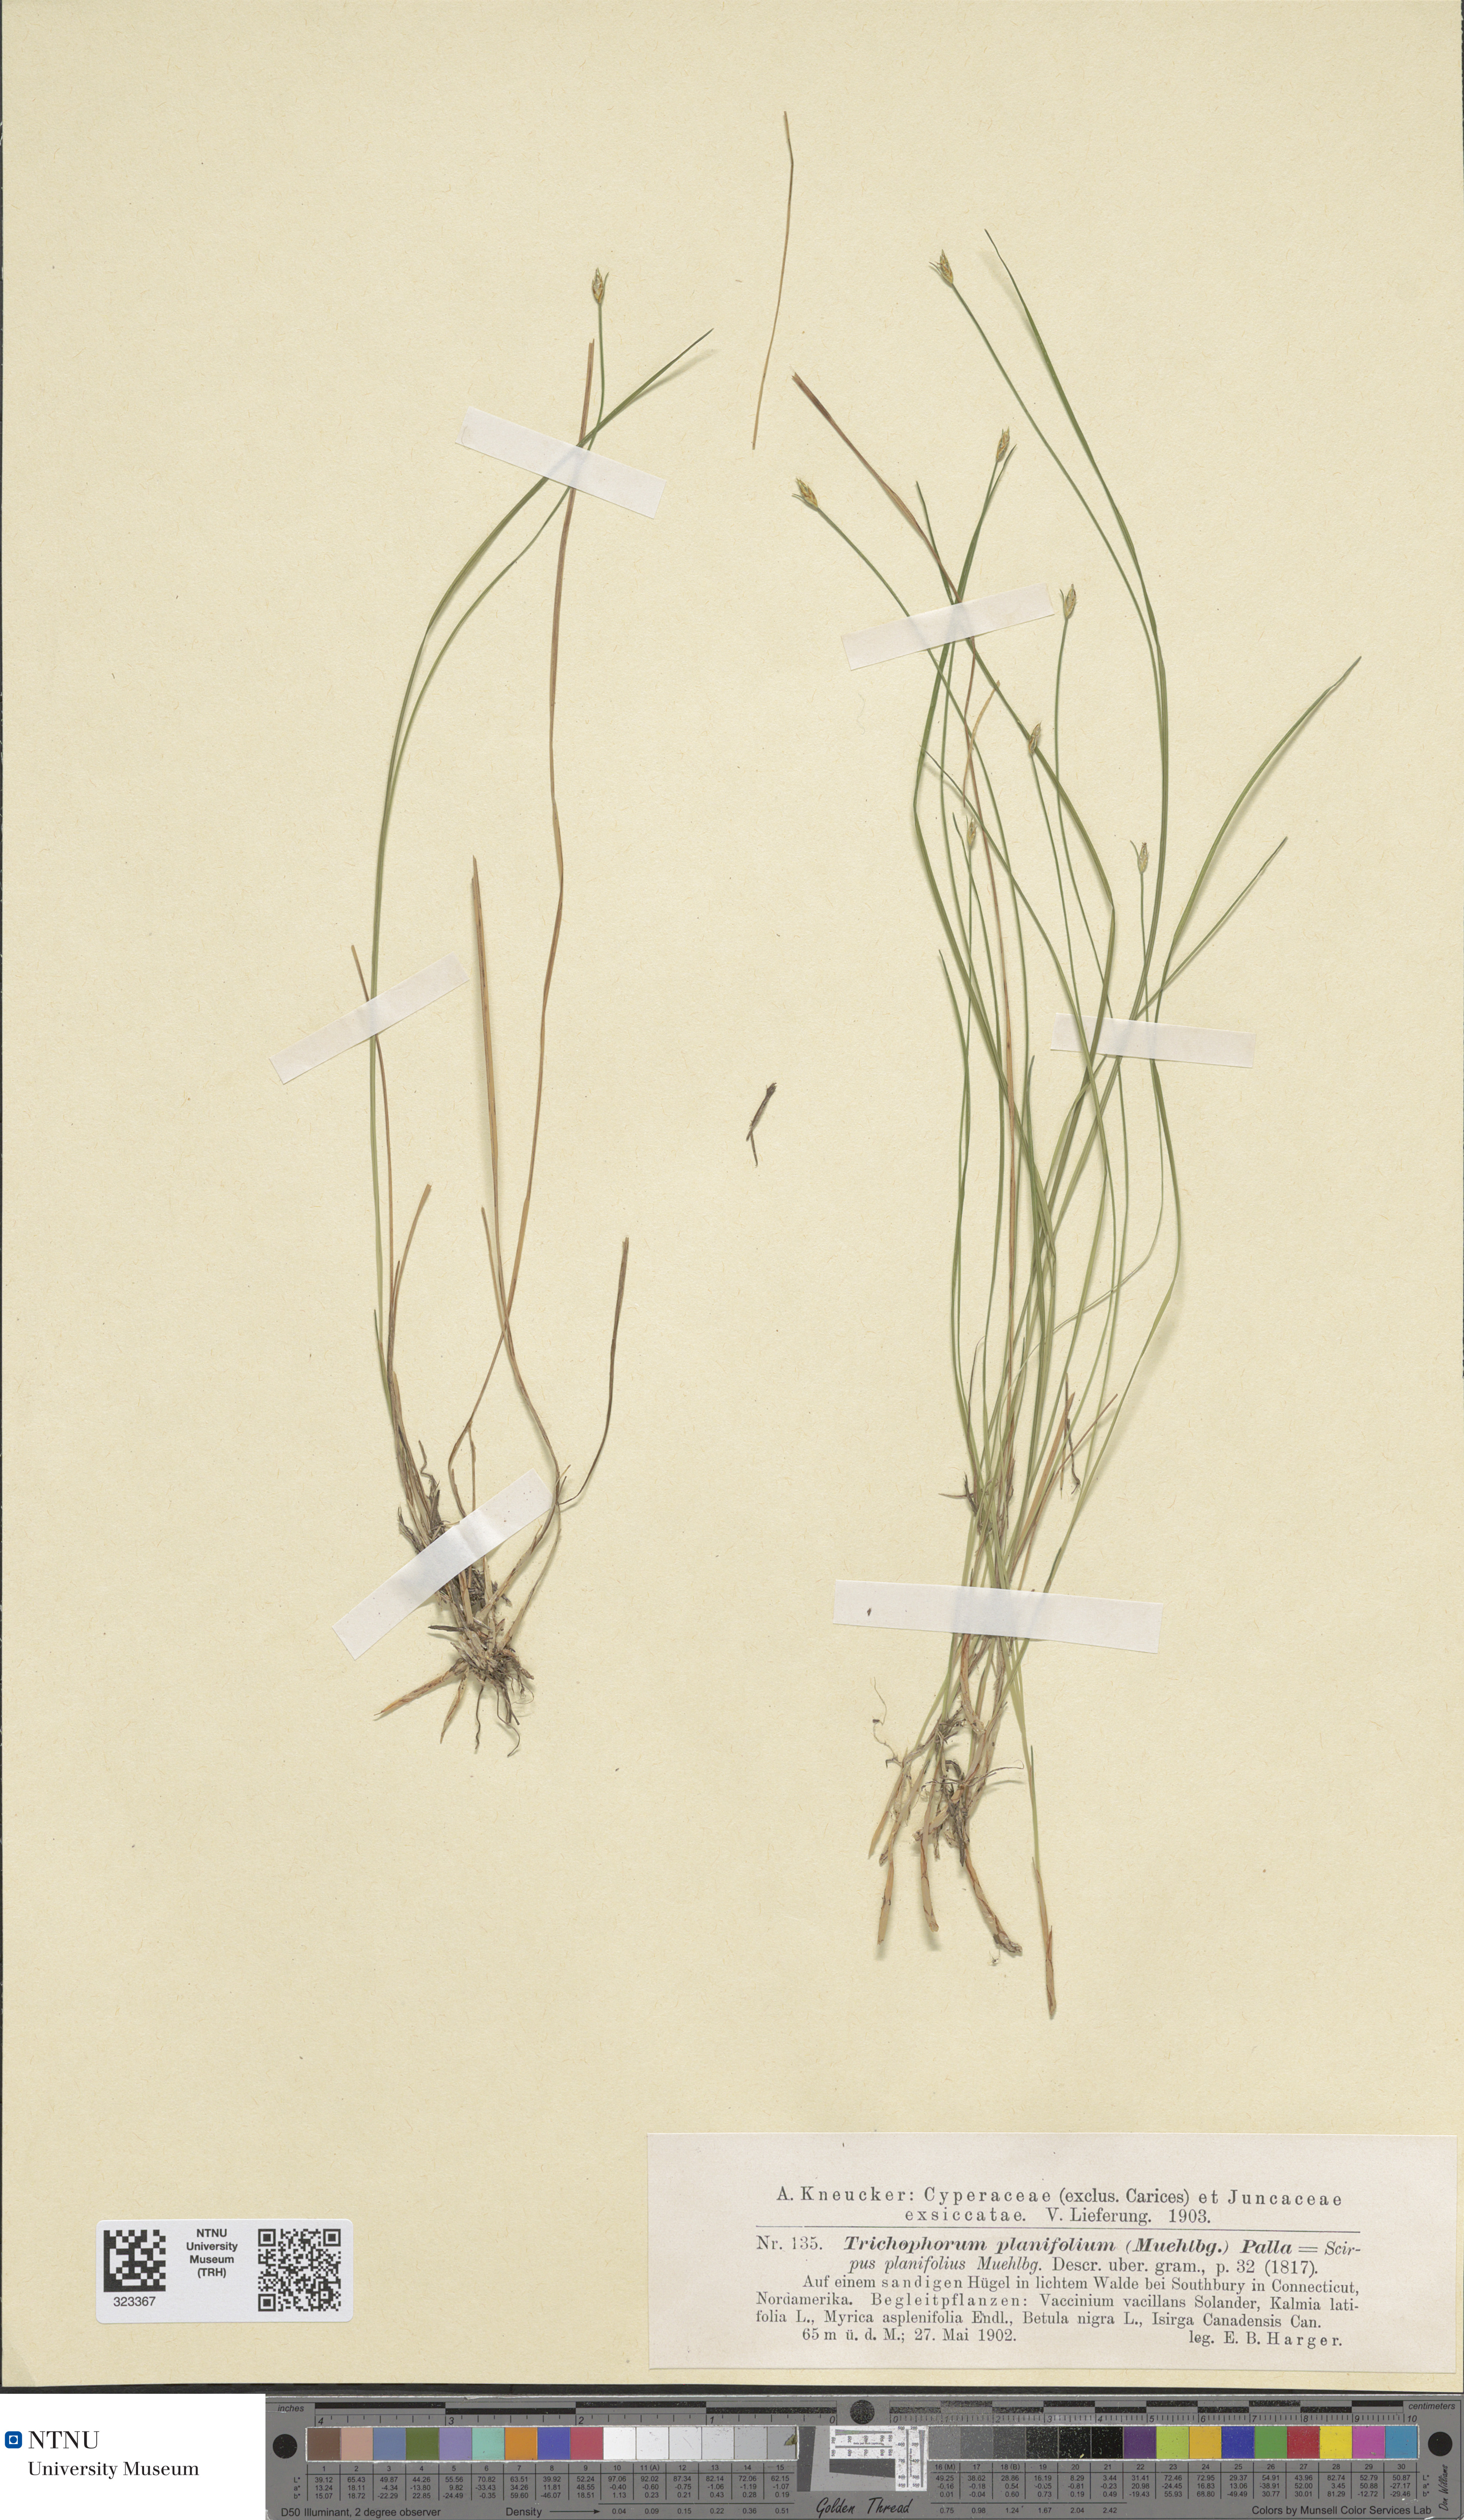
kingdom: Plantae
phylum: Tracheophyta
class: Liliopsida
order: Poales
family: Cyperaceae
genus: Trichophorum
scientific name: Trichophorum planifolium
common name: Bashful bulrush
